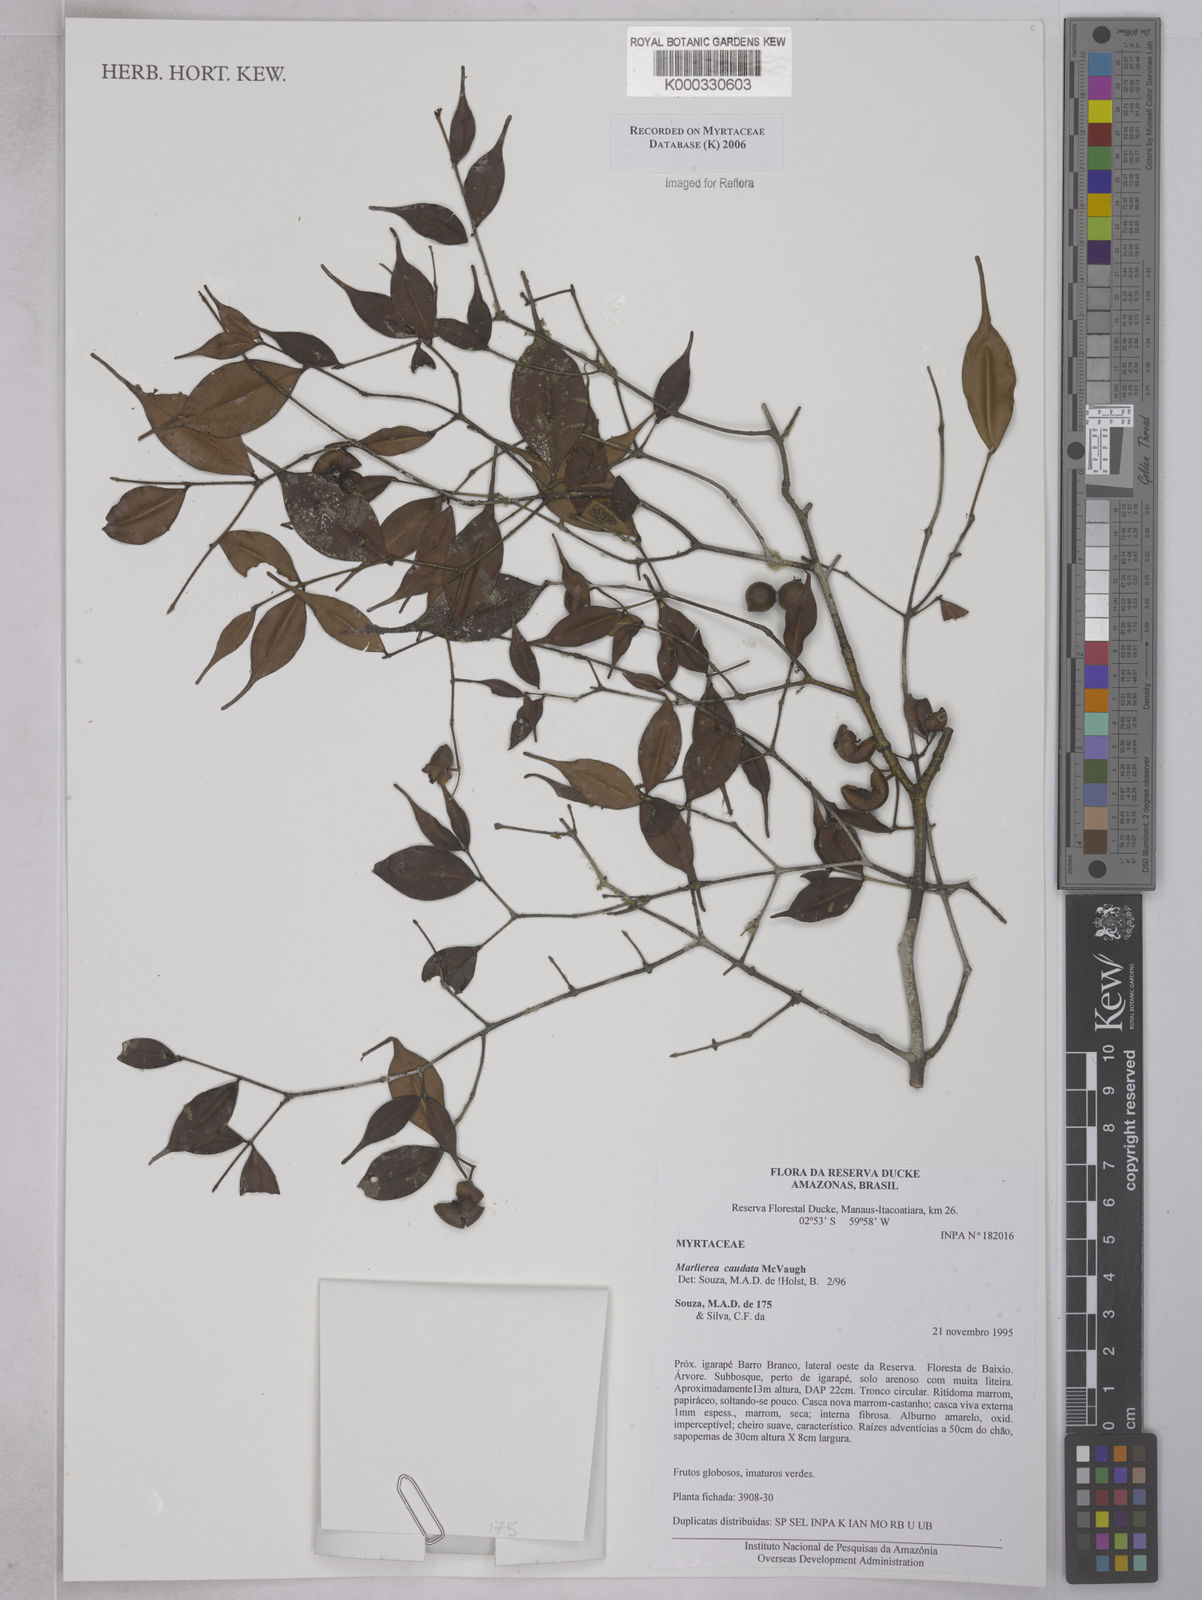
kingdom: Plantae
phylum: Tracheophyta
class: Magnoliopsida
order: Myrtales
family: Myrtaceae
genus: Myrcia
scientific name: Myrcia caudata
